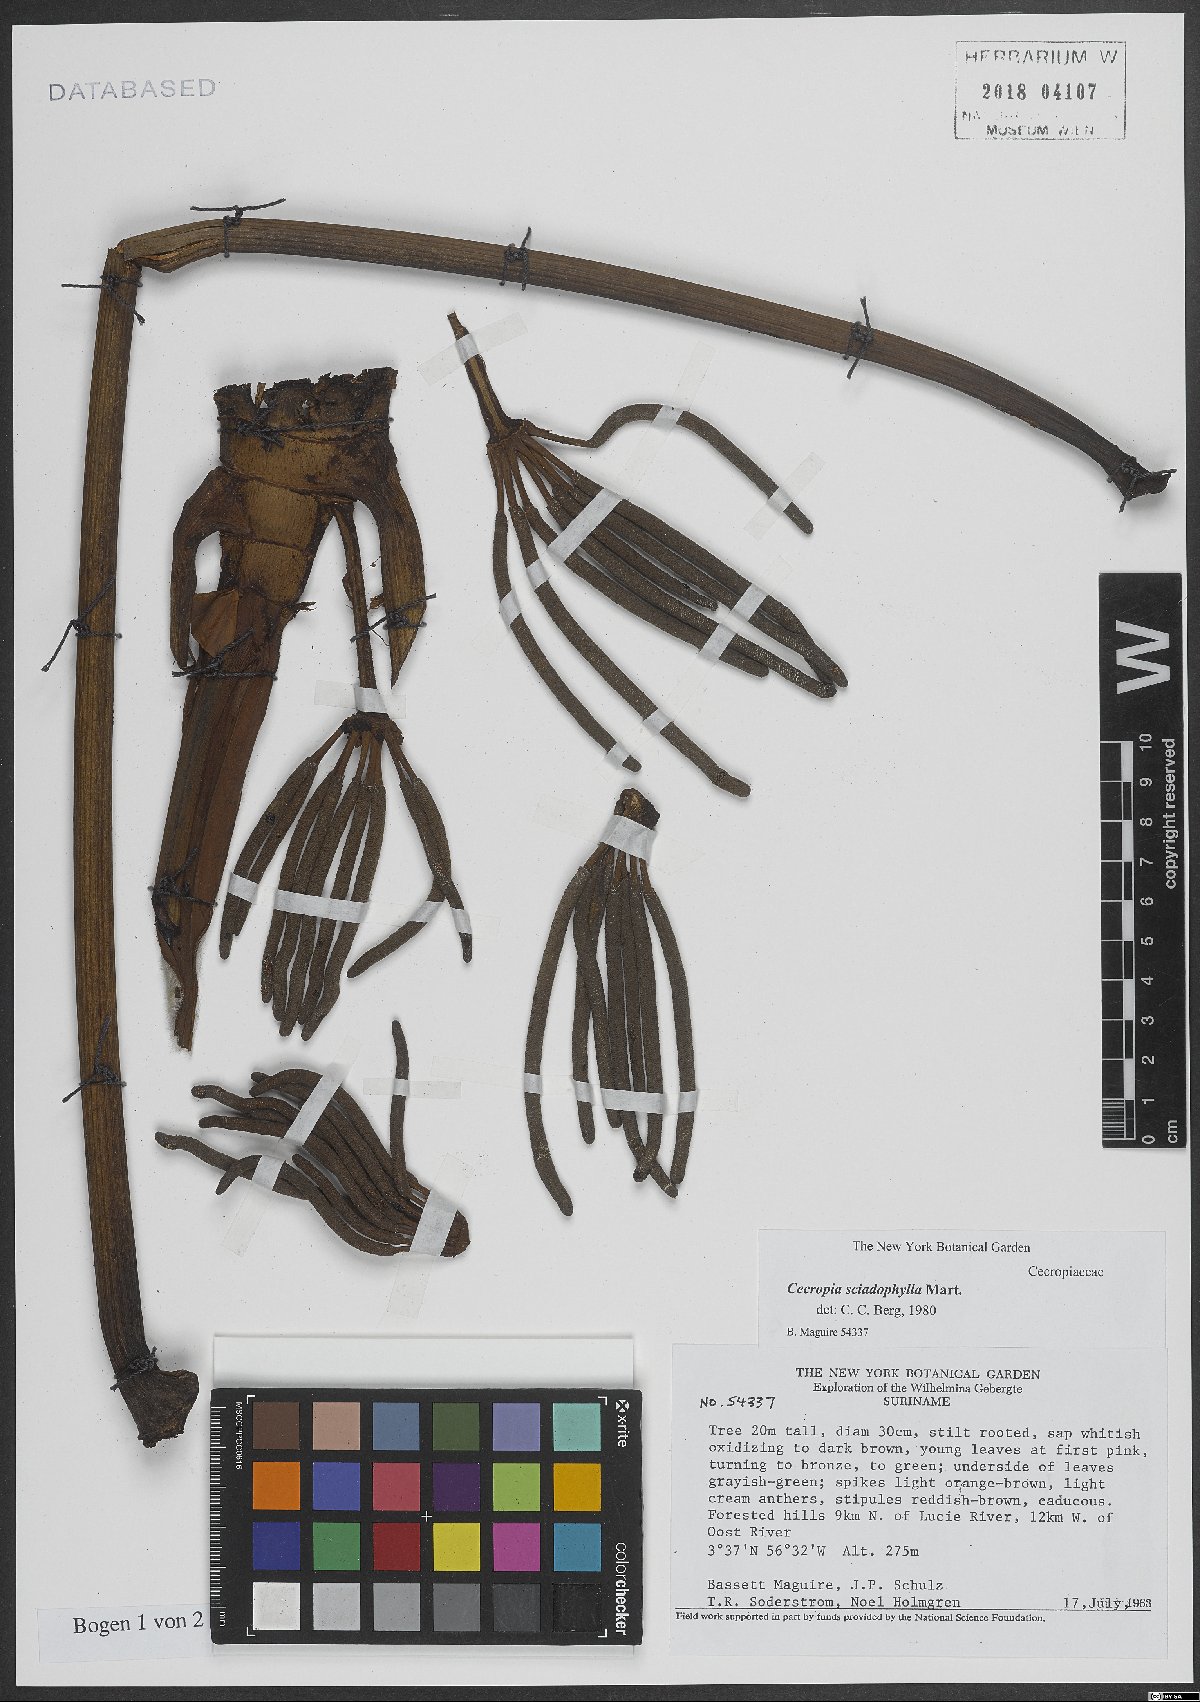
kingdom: Plantae
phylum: Tracheophyta
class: Magnoliopsida
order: Rosales
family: Urticaceae
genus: Cecropia
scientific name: Cecropia sciadophylla
